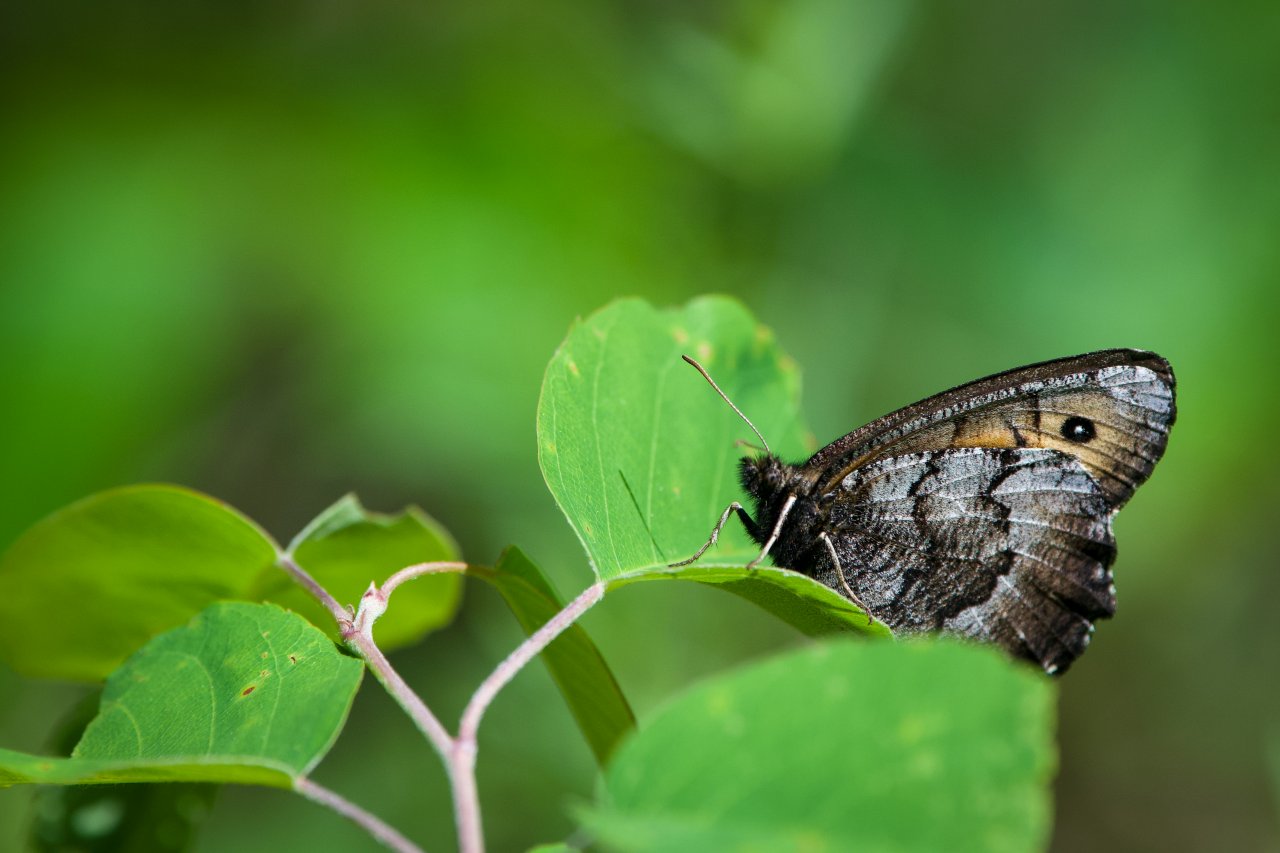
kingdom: Animalia
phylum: Arthropoda
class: Insecta
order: Lepidoptera
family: Nymphalidae
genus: Oeneis
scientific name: Oeneis macounii
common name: Macoun's Arctic
